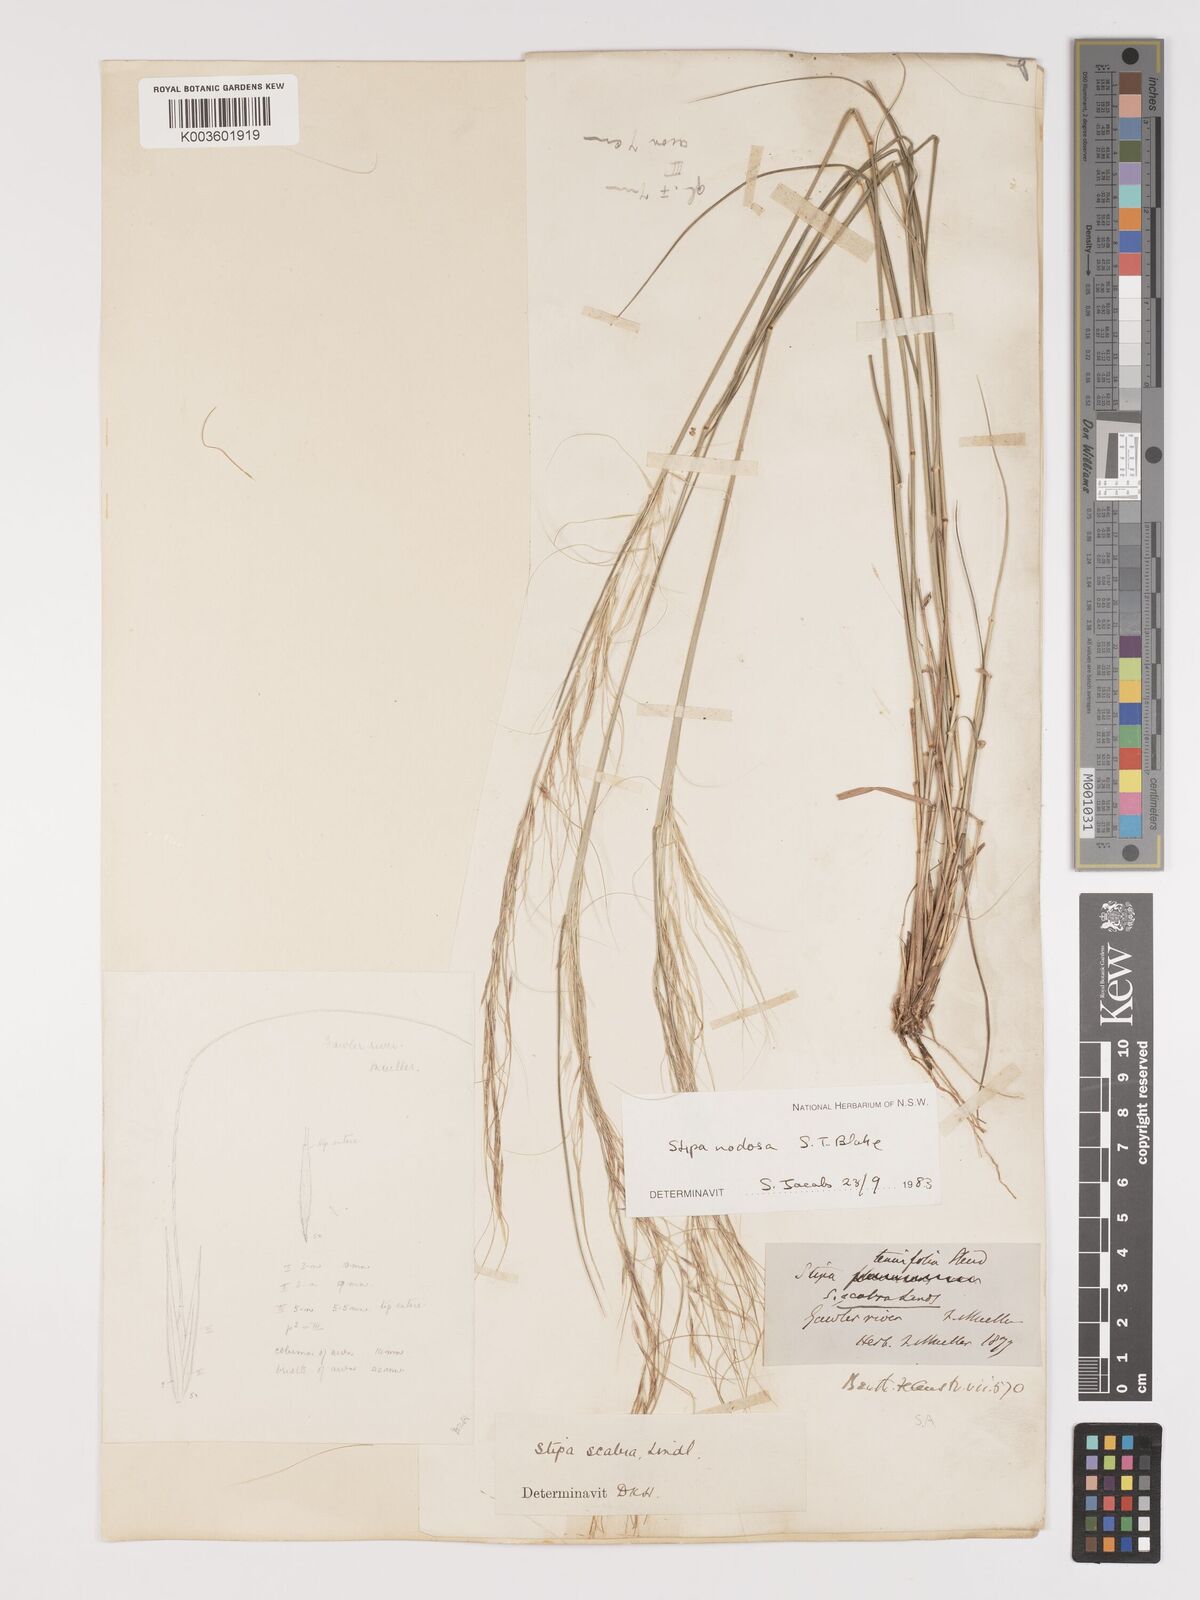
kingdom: Plantae
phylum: Tracheophyta
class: Liliopsida
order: Poales
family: Poaceae
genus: Austrostipa
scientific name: Austrostipa nodosa
